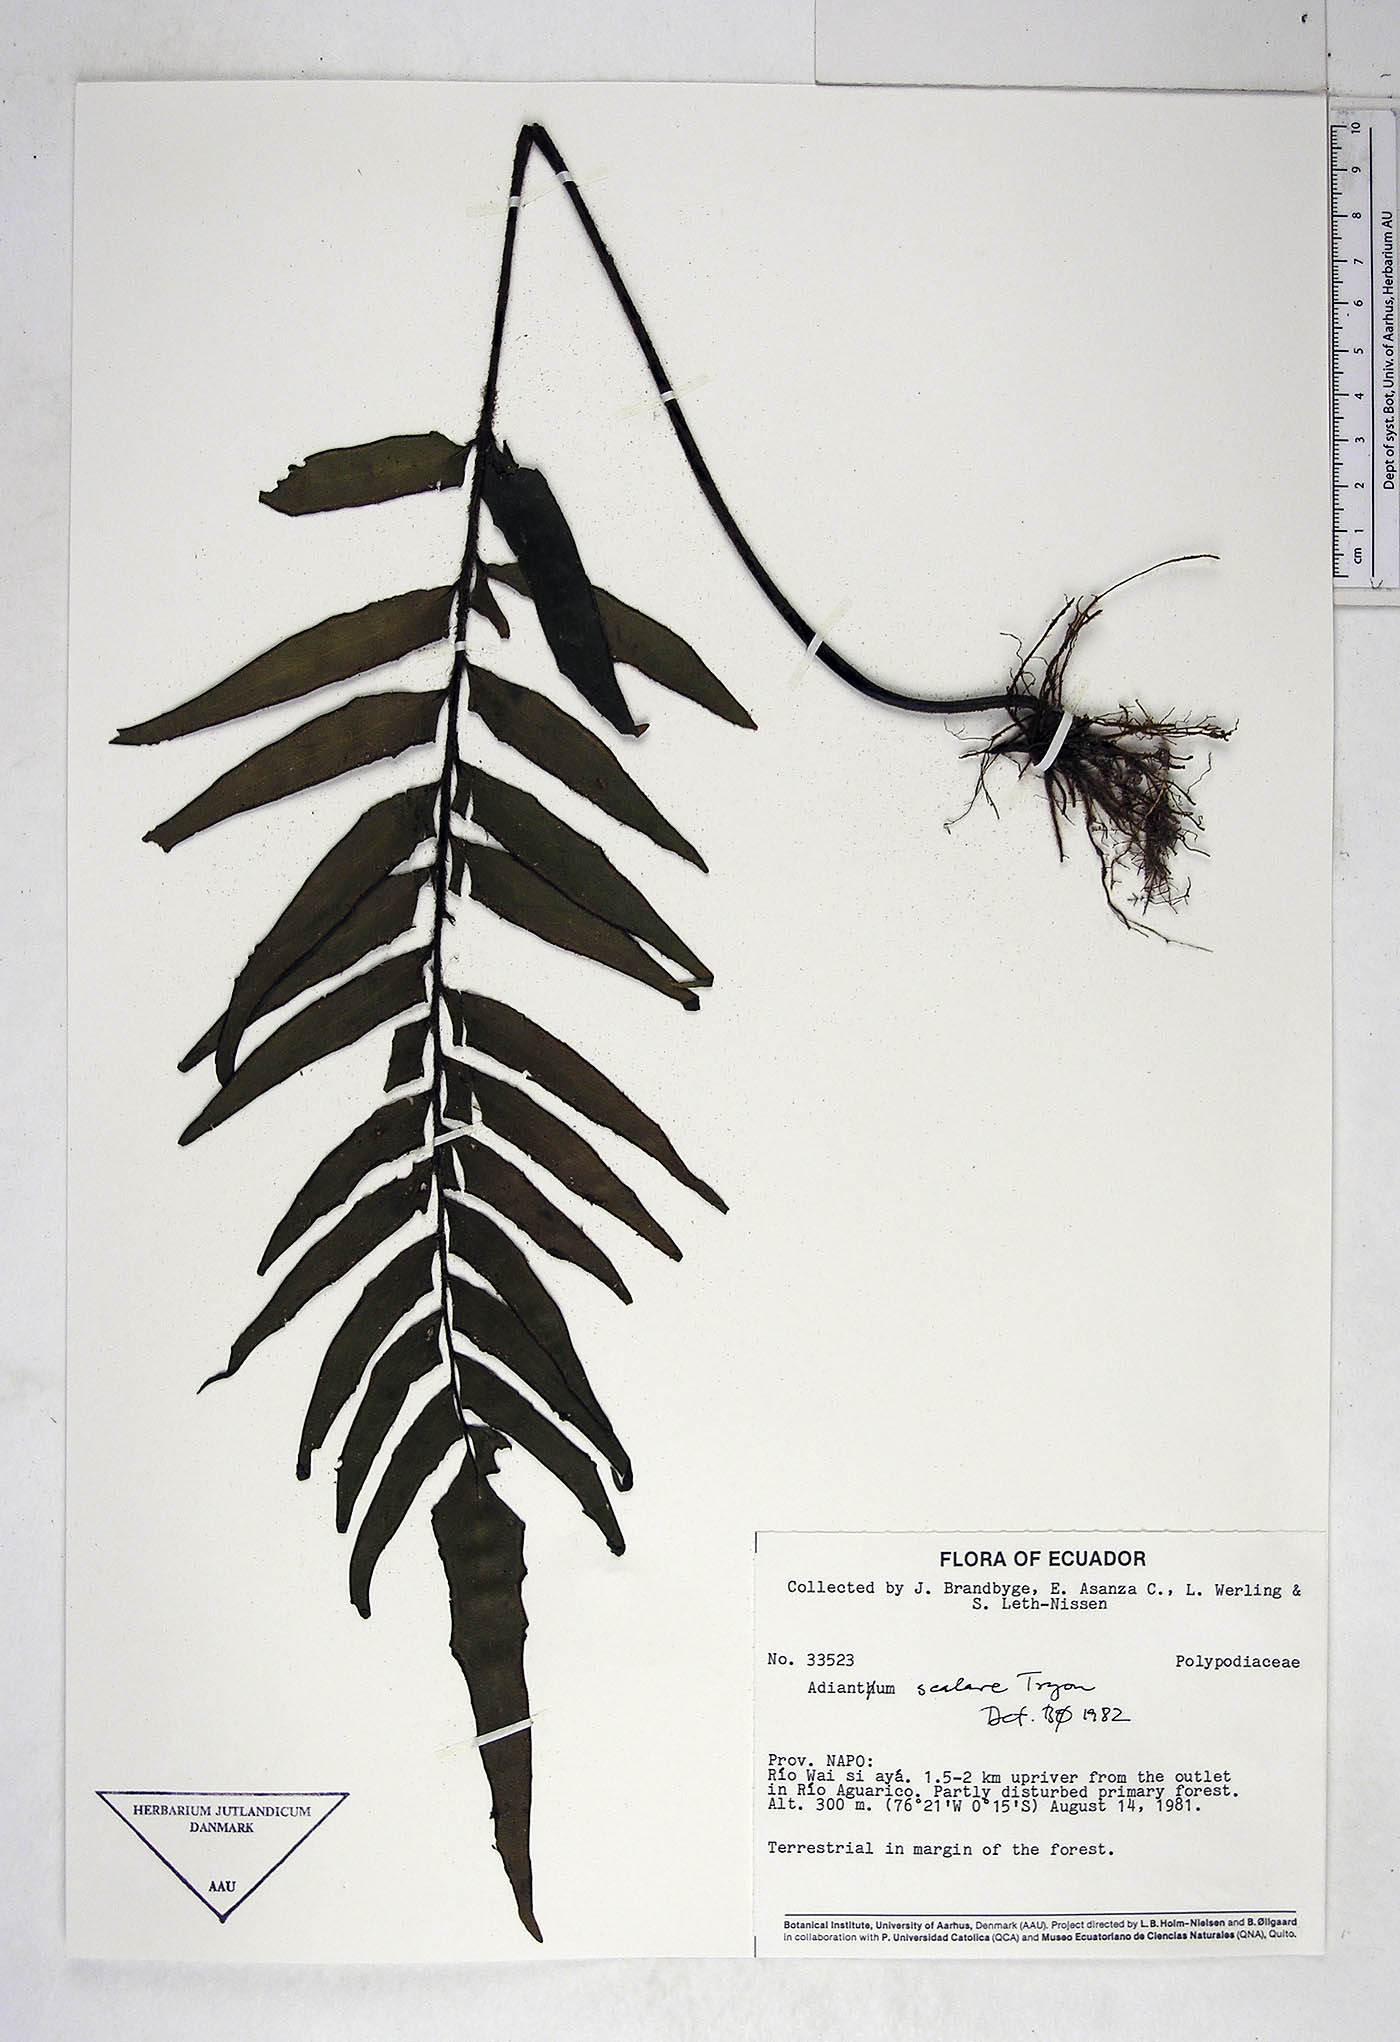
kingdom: Plantae
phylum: Tracheophyta
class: Polypodiopsida
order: Polypodiales
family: Pteridaceae
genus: Adiantum
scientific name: Adiantum scalare
